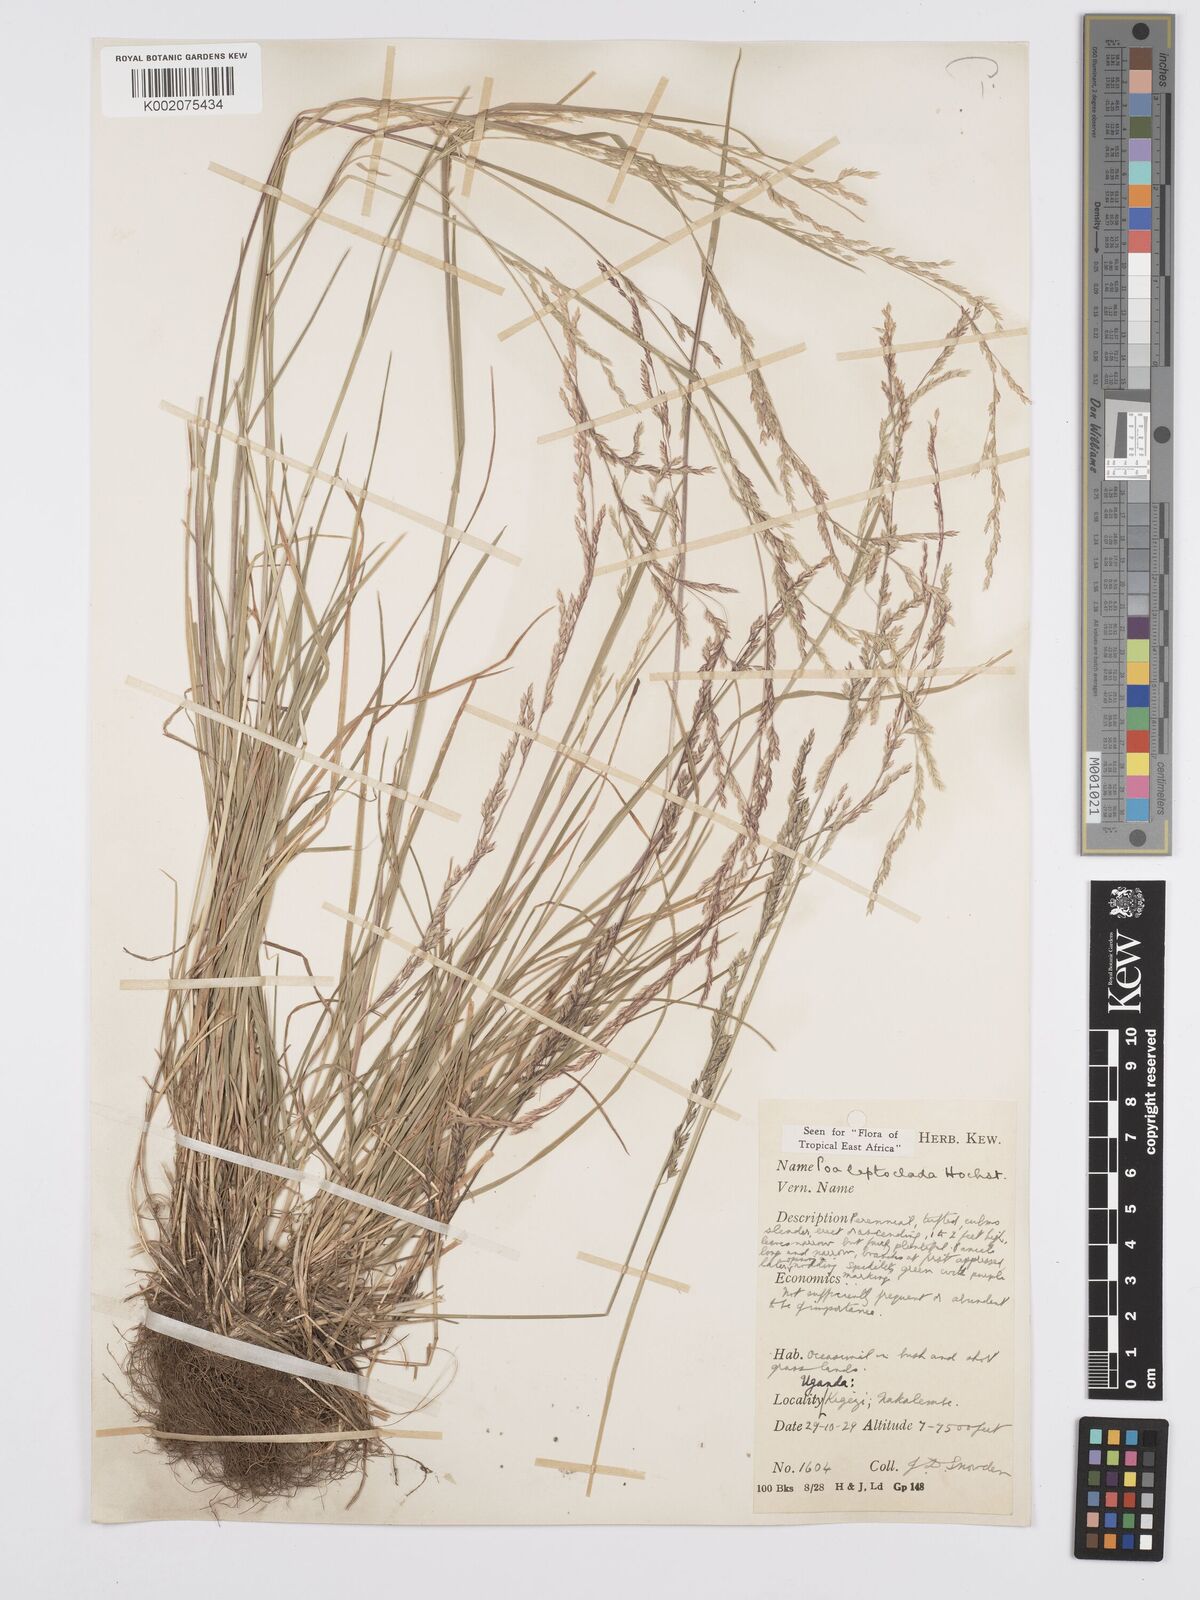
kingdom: Plantae
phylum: Tracheophyta
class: Liliopsida
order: Poales
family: Poaceae
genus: Poa
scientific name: Poa
